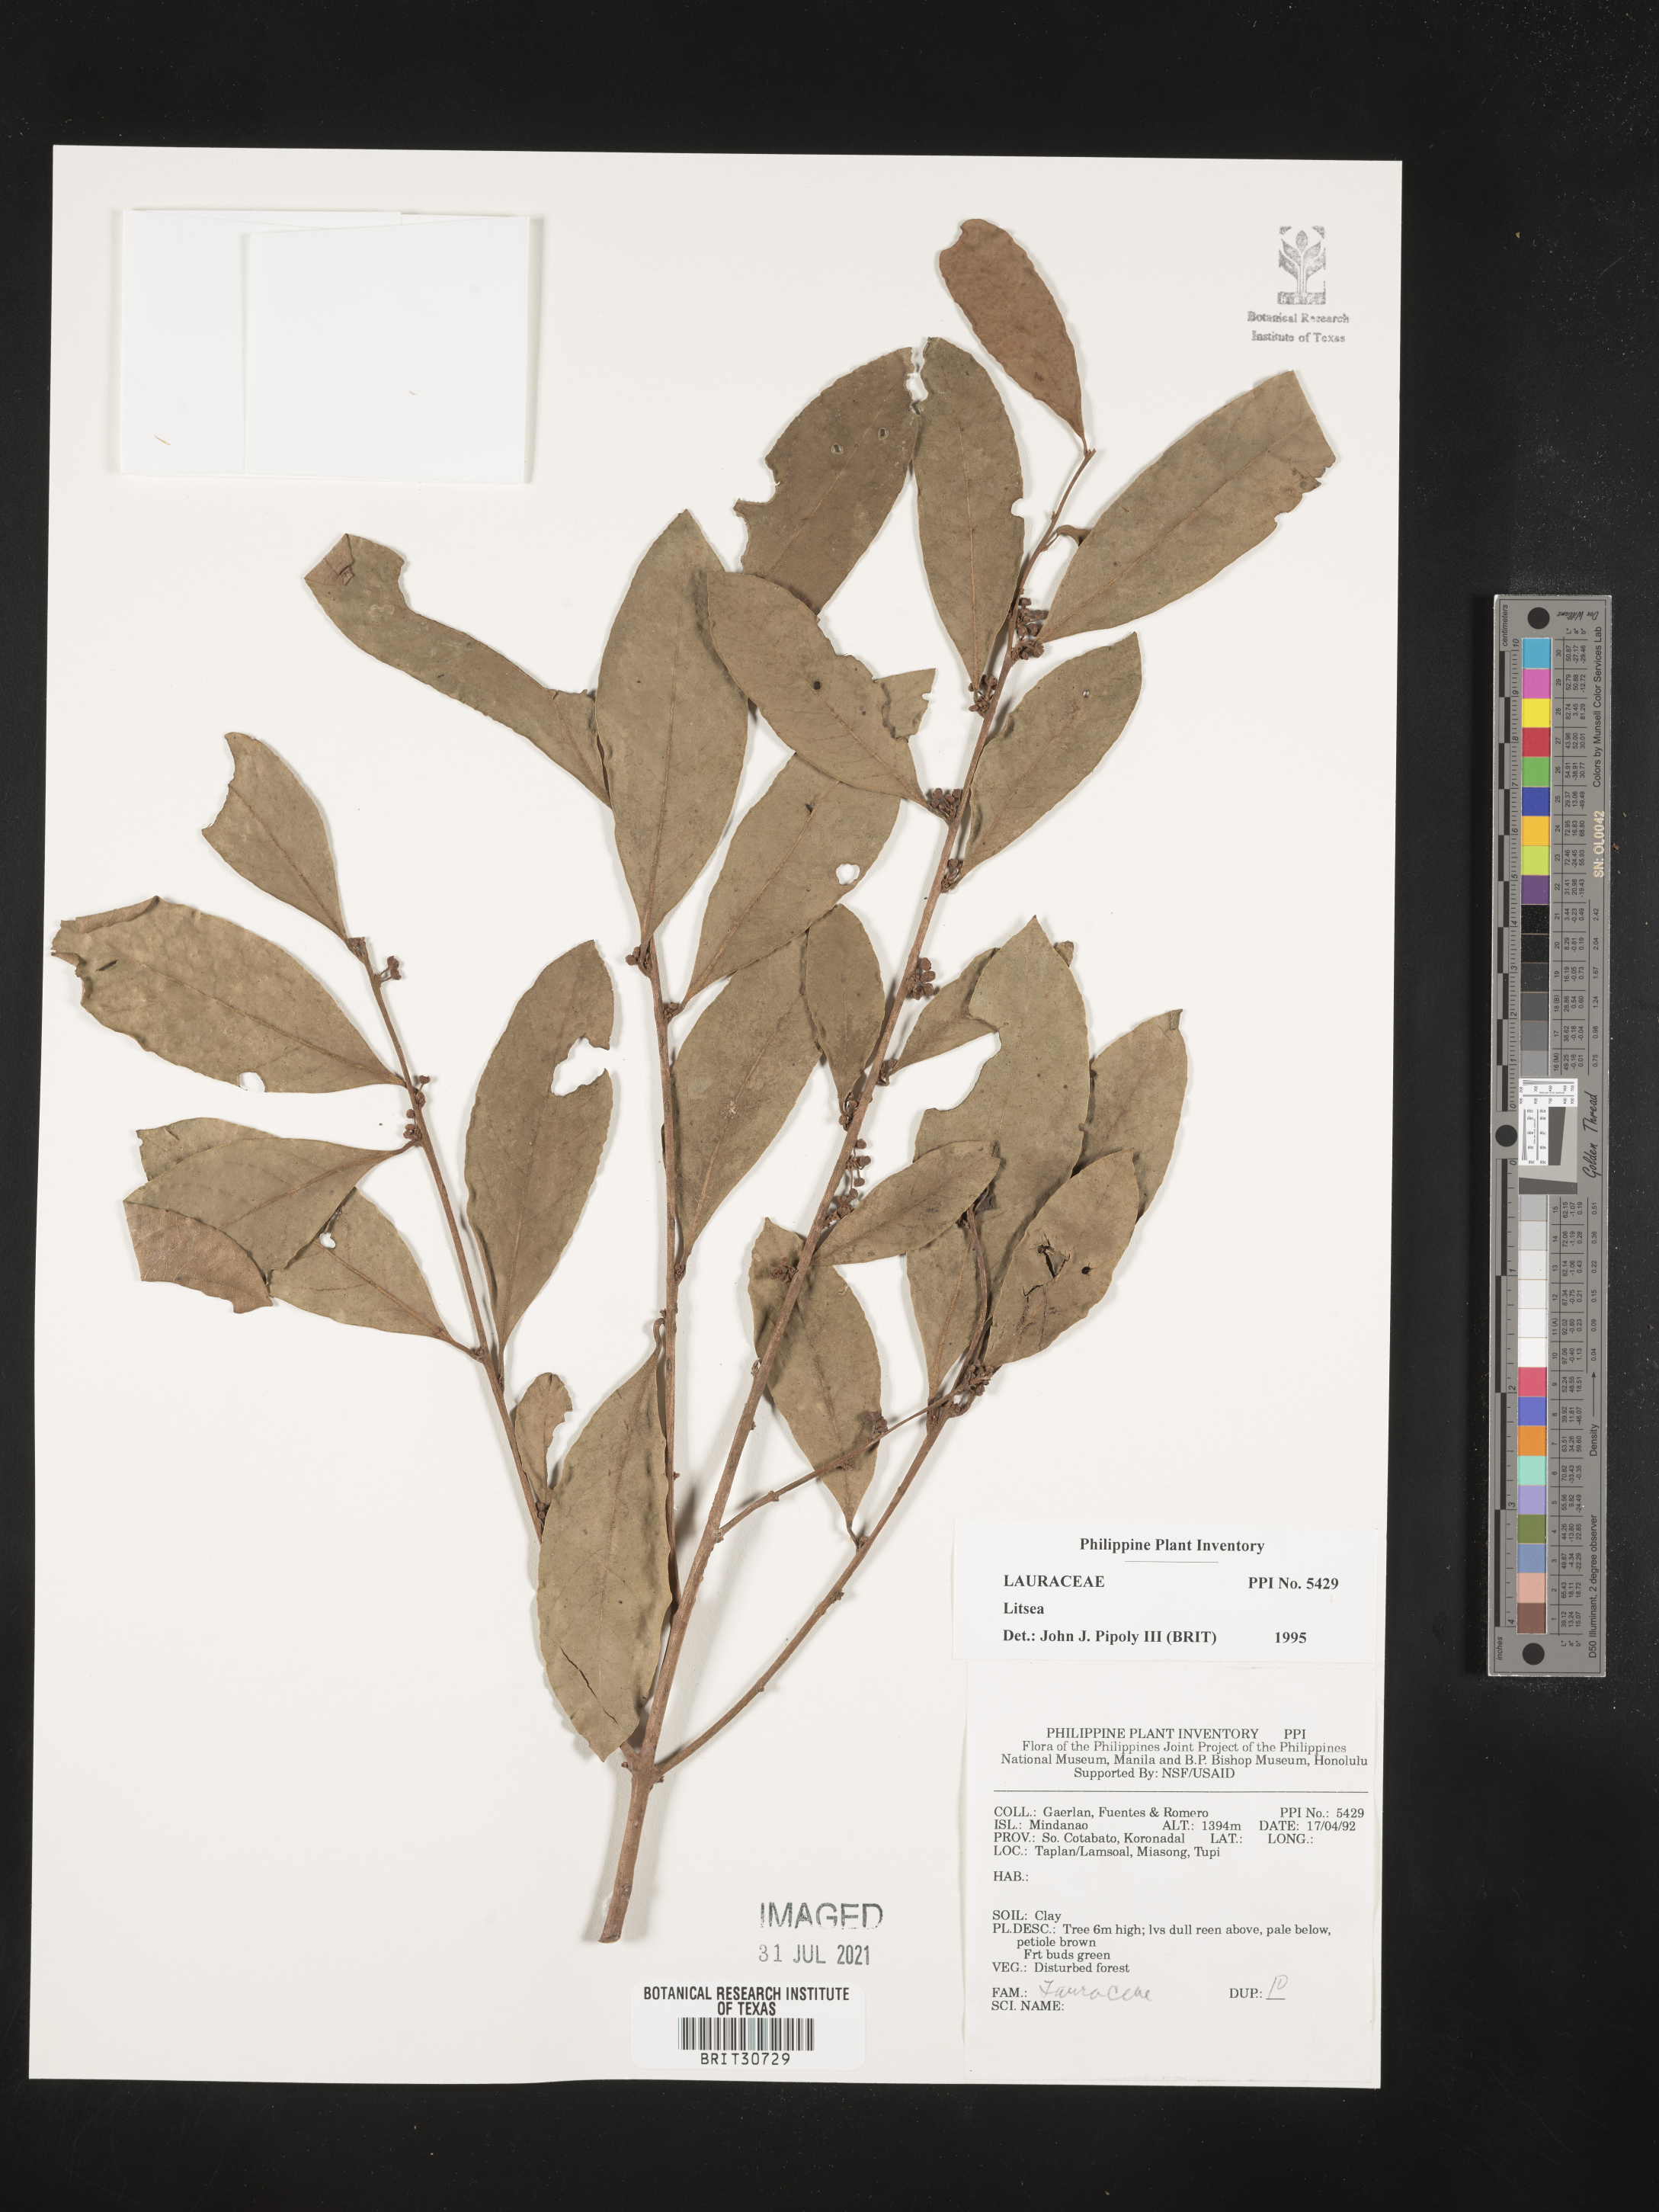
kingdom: Plantae
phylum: Tracheophyta
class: Magnoliopsida
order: Laurales
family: Lauraceae
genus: Litsea
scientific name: Litsea
